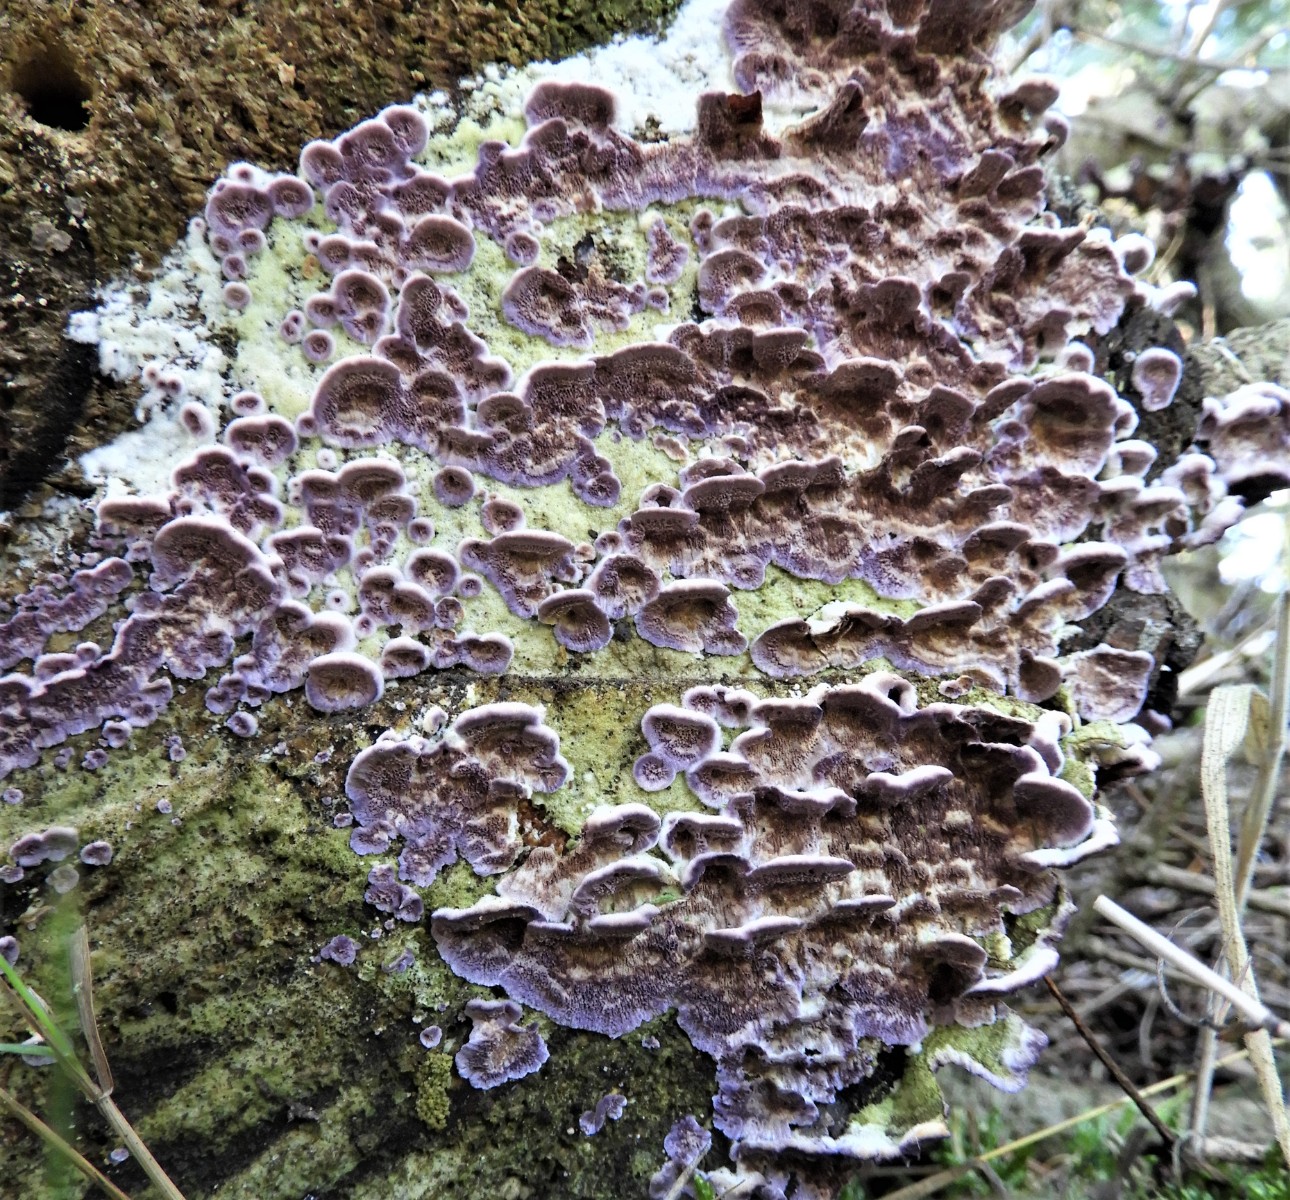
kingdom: Fungi
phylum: Basidiomycota
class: Agaricomycetes
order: Hymenochaetales
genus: Trichaptum
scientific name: Trichaptum abietinum
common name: almindelig violporesvamp
